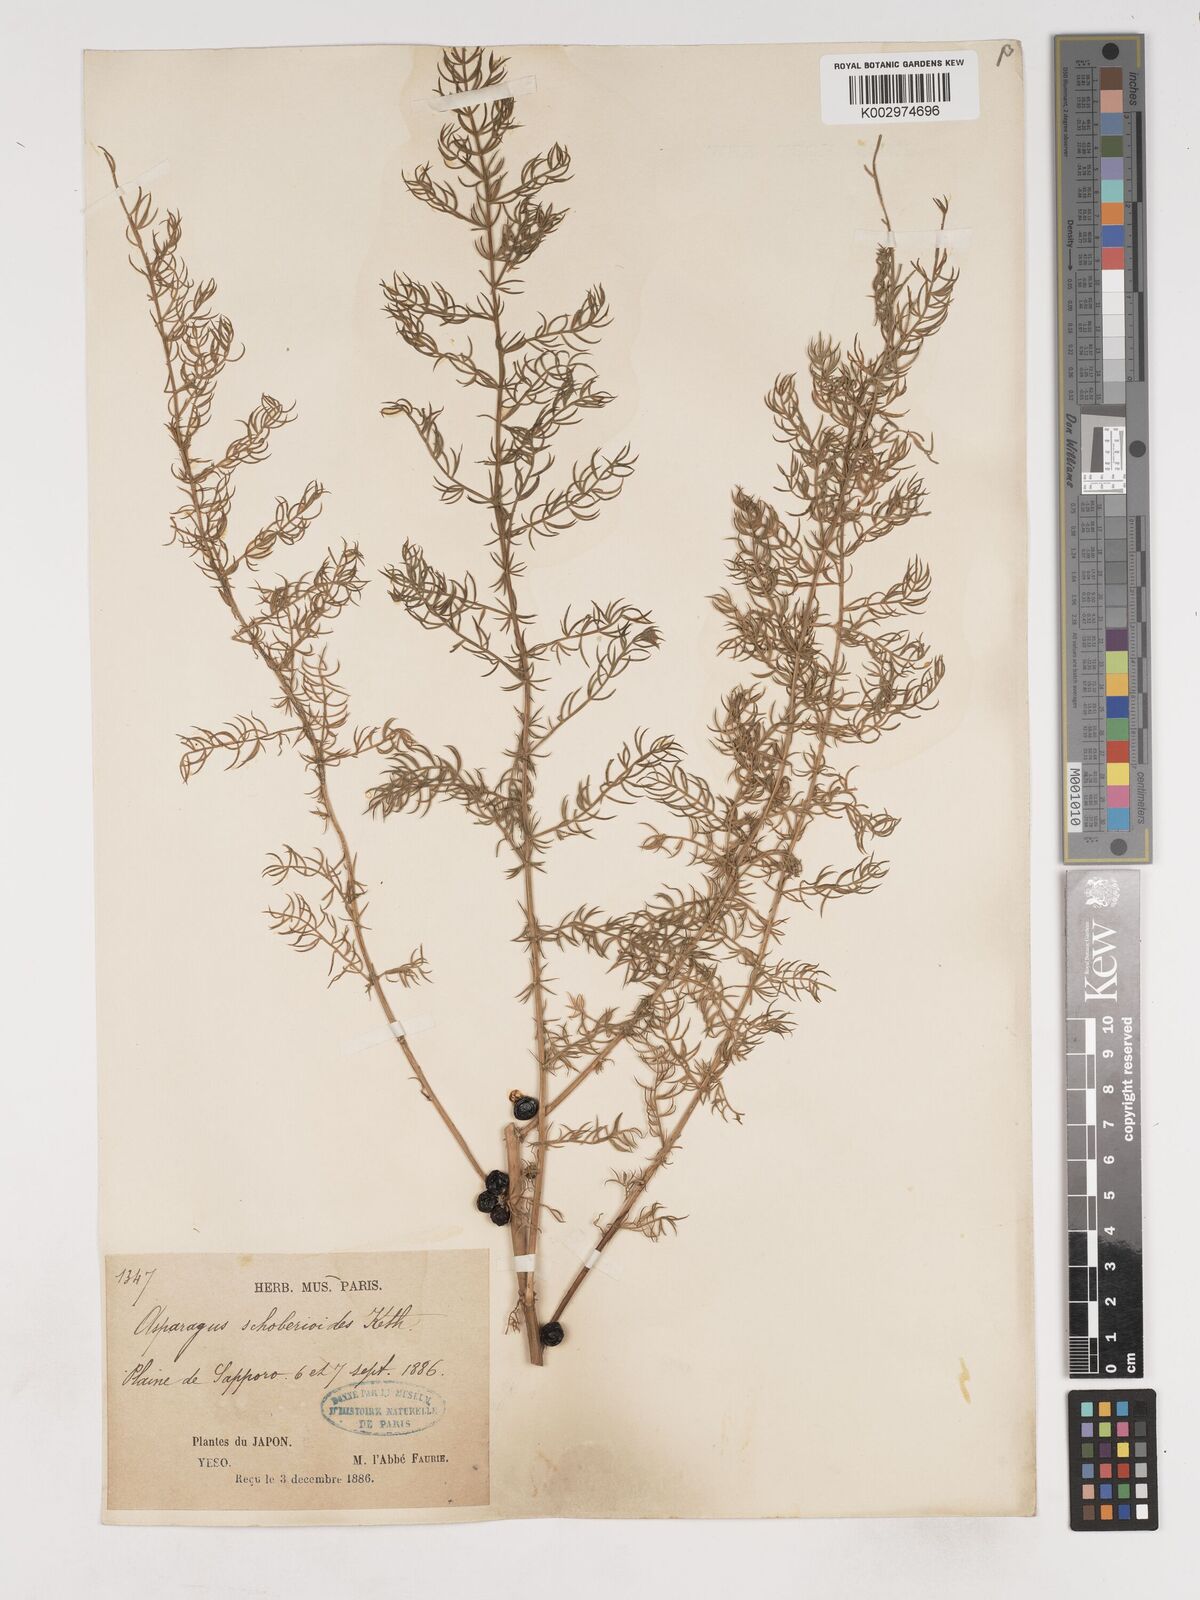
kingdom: Plantae
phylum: Tracheophyta
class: Liliopsida
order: Asparagales
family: Asparagaceae
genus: Asparagus
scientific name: Asparagus schoberioides
